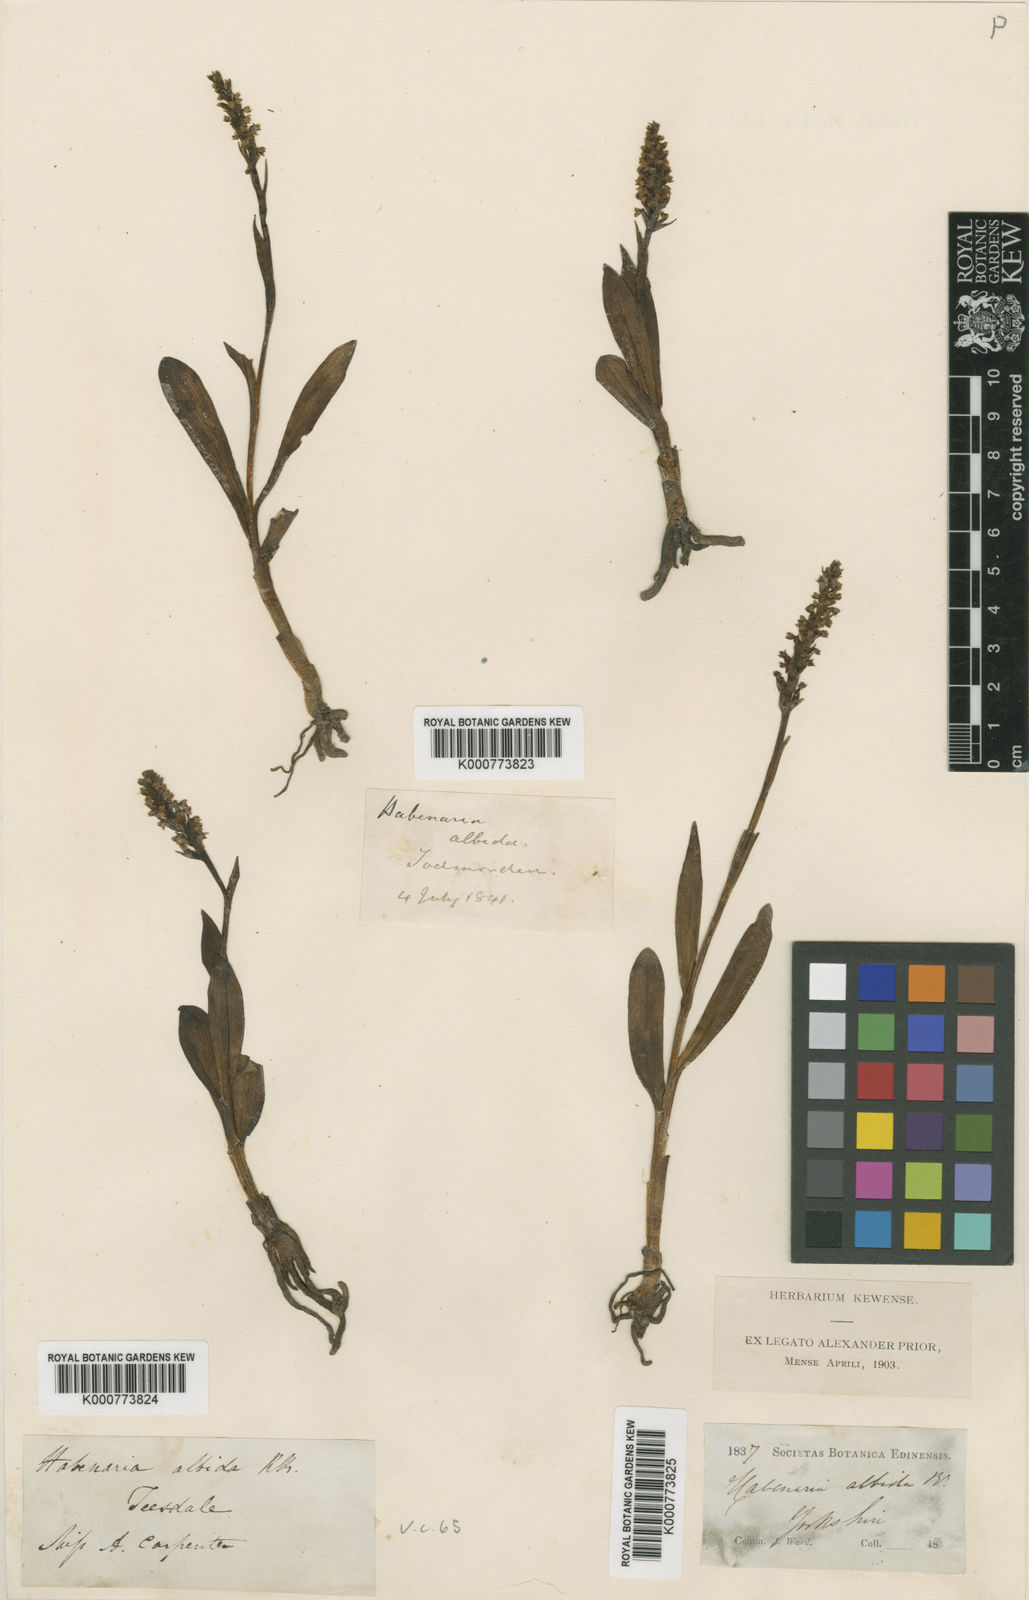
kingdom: Plantae
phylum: Tracheophyta
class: Liliopsida
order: Asparagales
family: Orchidaceae
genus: Pseudorchis
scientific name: Pseudorchis
